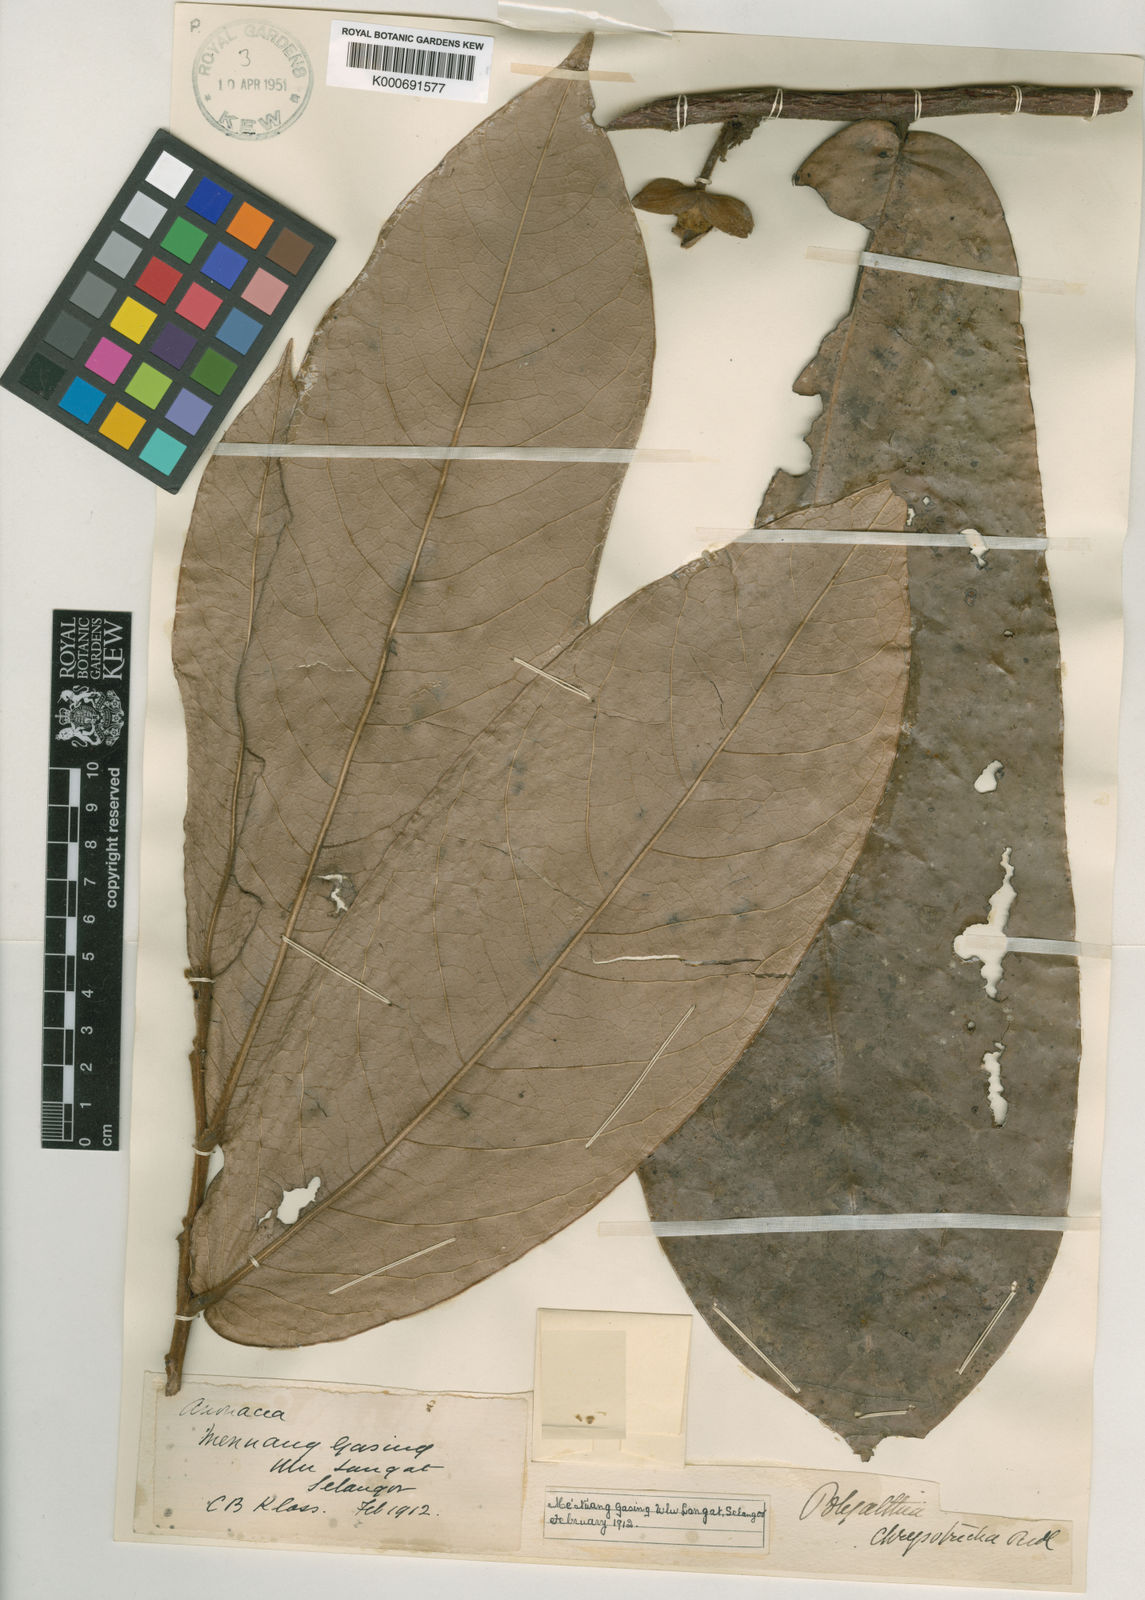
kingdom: Plantae
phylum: Tracheophyta
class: Magnoliopsida
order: Magnoliales
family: Annonaceae
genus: Polyalthia
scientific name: Polyalthia chrysotricha
